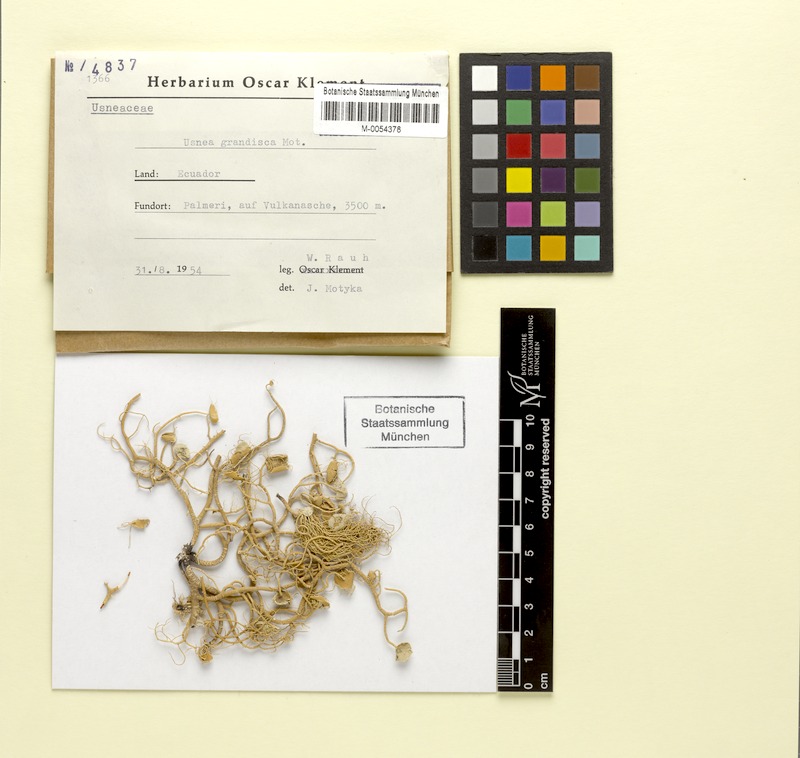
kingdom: Fungi
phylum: Ascomycota
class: Lecanoromycetes
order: Lecanorales
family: Parmeliaceae
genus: Usnea
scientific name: Usnea grandis
